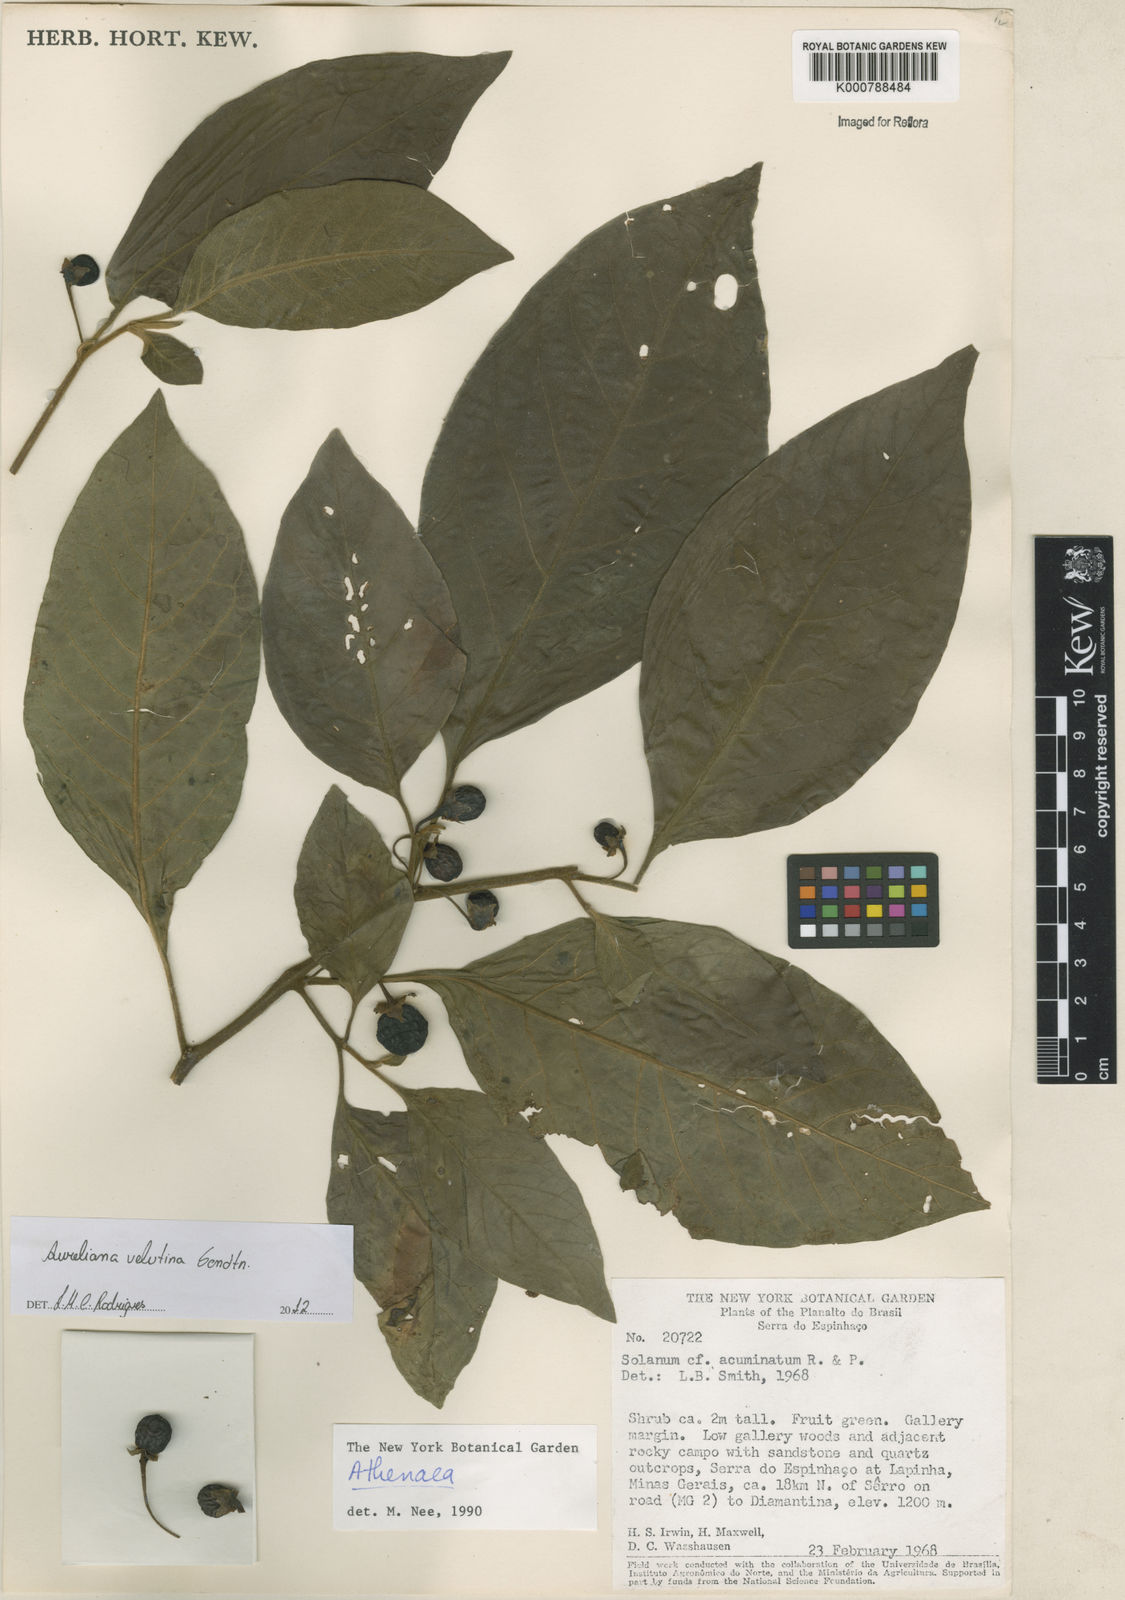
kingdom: Plantae
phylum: Tracheophyta
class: Magnoliopsida
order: Solanales
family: Solanaceae
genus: Athenaea
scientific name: Athenaea velutina
